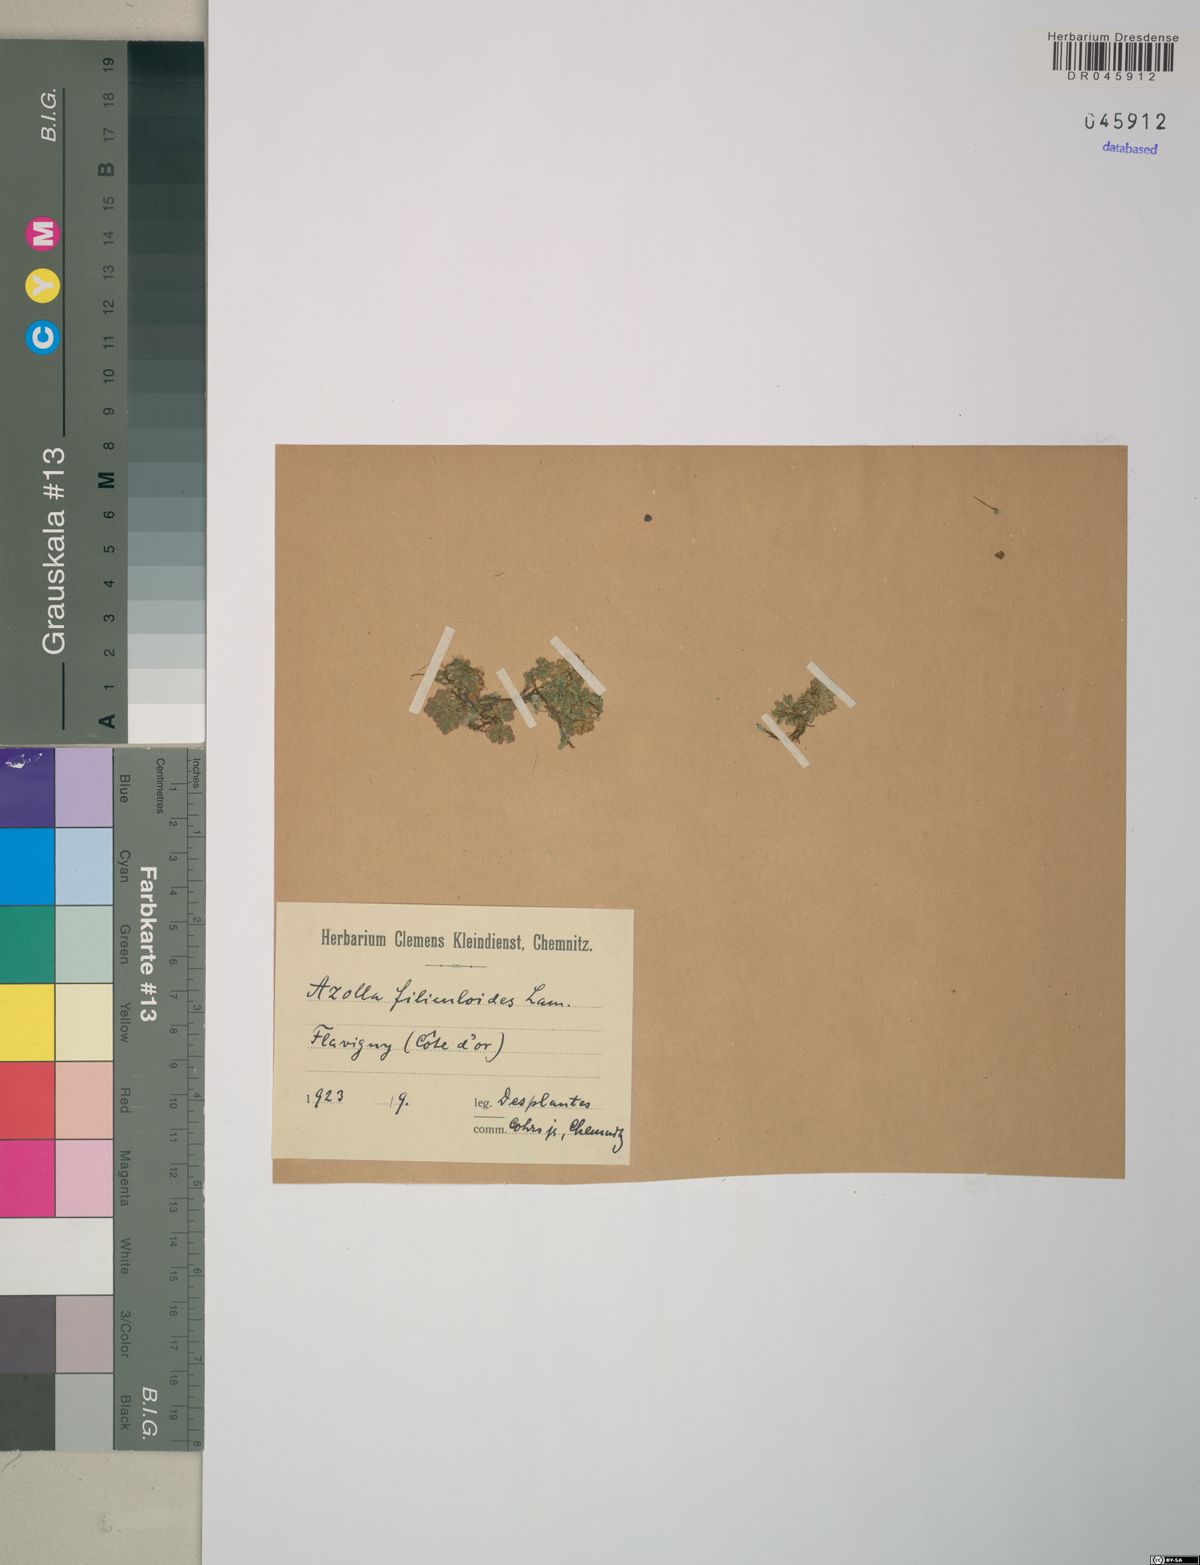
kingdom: Plantae
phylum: Tracheophyta
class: Polypodiopsida
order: Salviniales
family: Salviniaceae
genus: Azolla
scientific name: Azolla filiculoides
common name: Water fern
